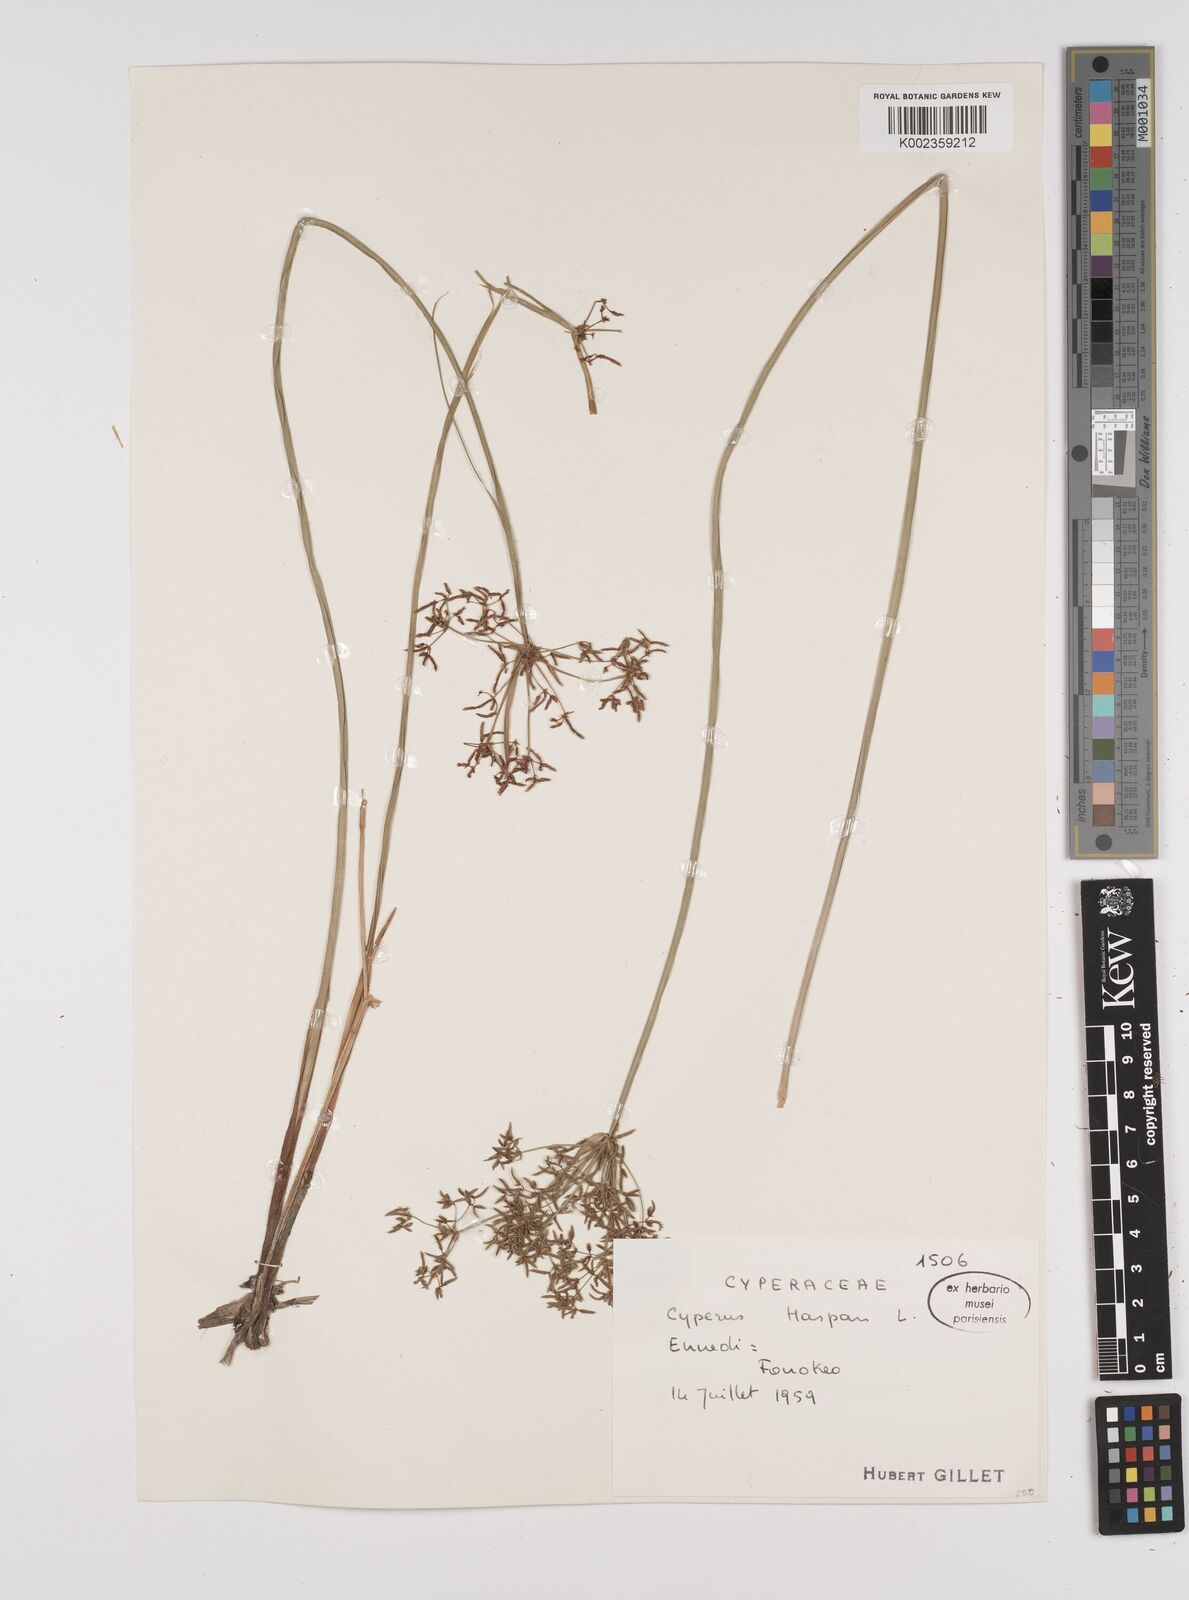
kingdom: Plantae
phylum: Tracheophyta
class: Liliopsida
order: Poales
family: Cyperaceae
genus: Cyperus
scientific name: Cyperus haspan
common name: Haspan flatsedge
